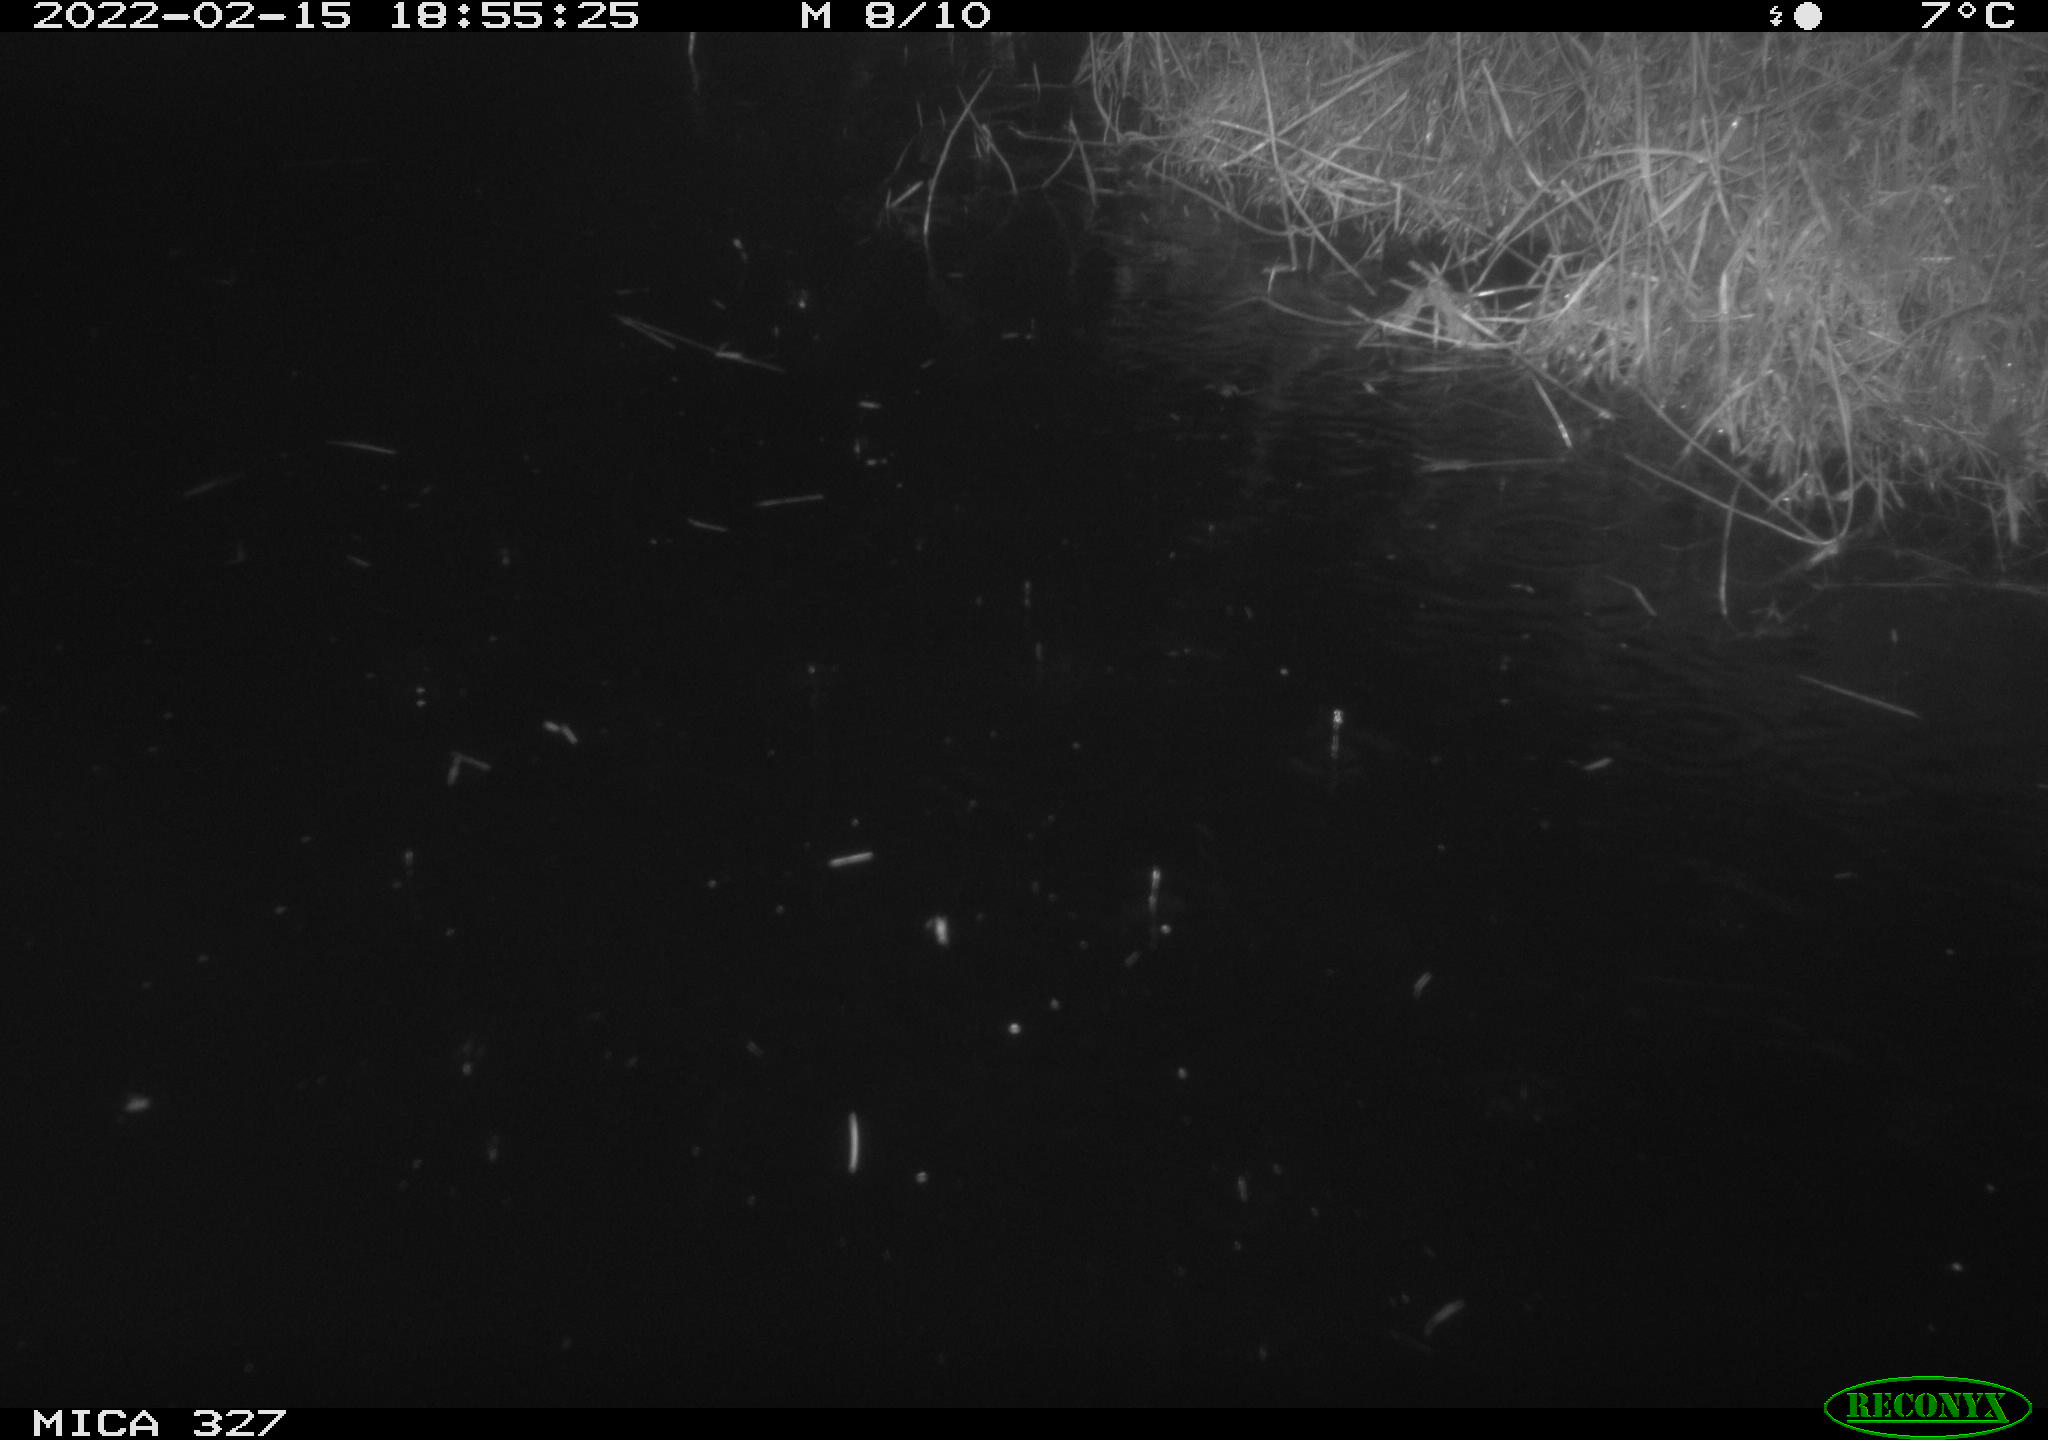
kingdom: Animalia
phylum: Chordata
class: Mammalia
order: Rodentia
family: Cricetidae
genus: Ondatra
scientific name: Ondatra zibethicus
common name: Muskrat
